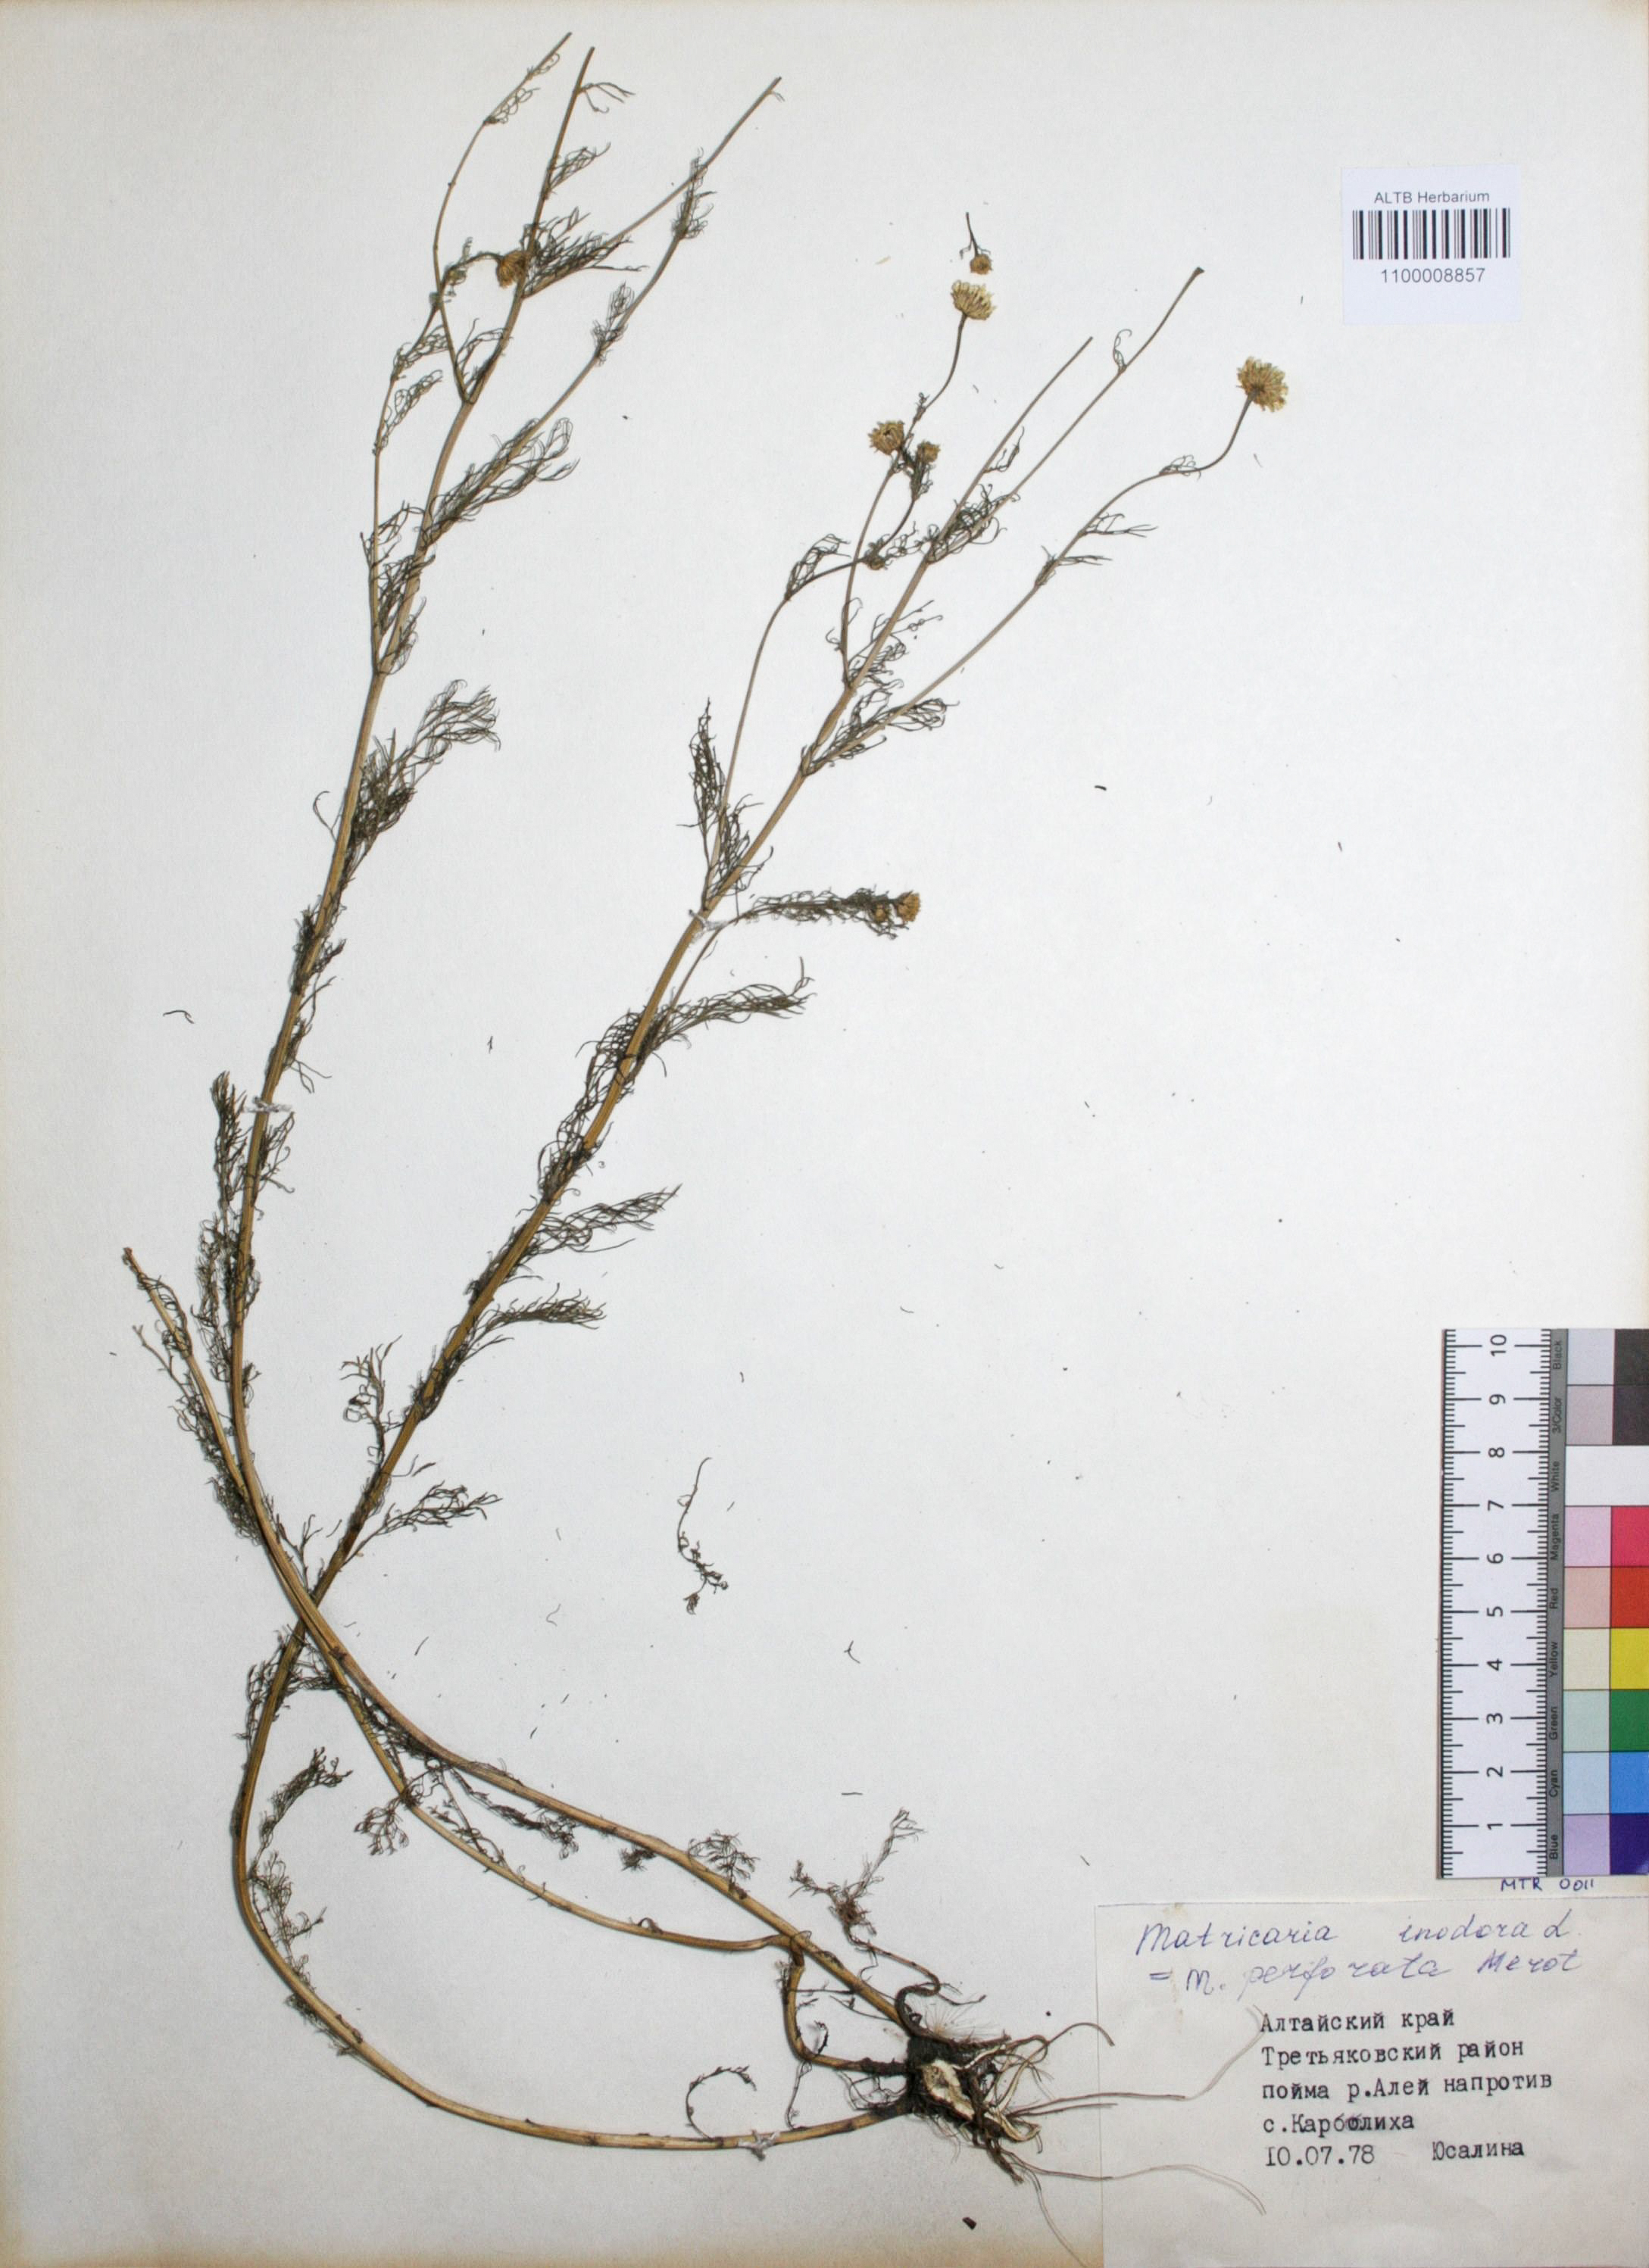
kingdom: Plantae
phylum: Tracheophyta
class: Magnoliopsida
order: Asterales
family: Asteraceae
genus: Tripleurospermum
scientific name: Tripleurospermum inodorum
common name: Scentless mayweed
